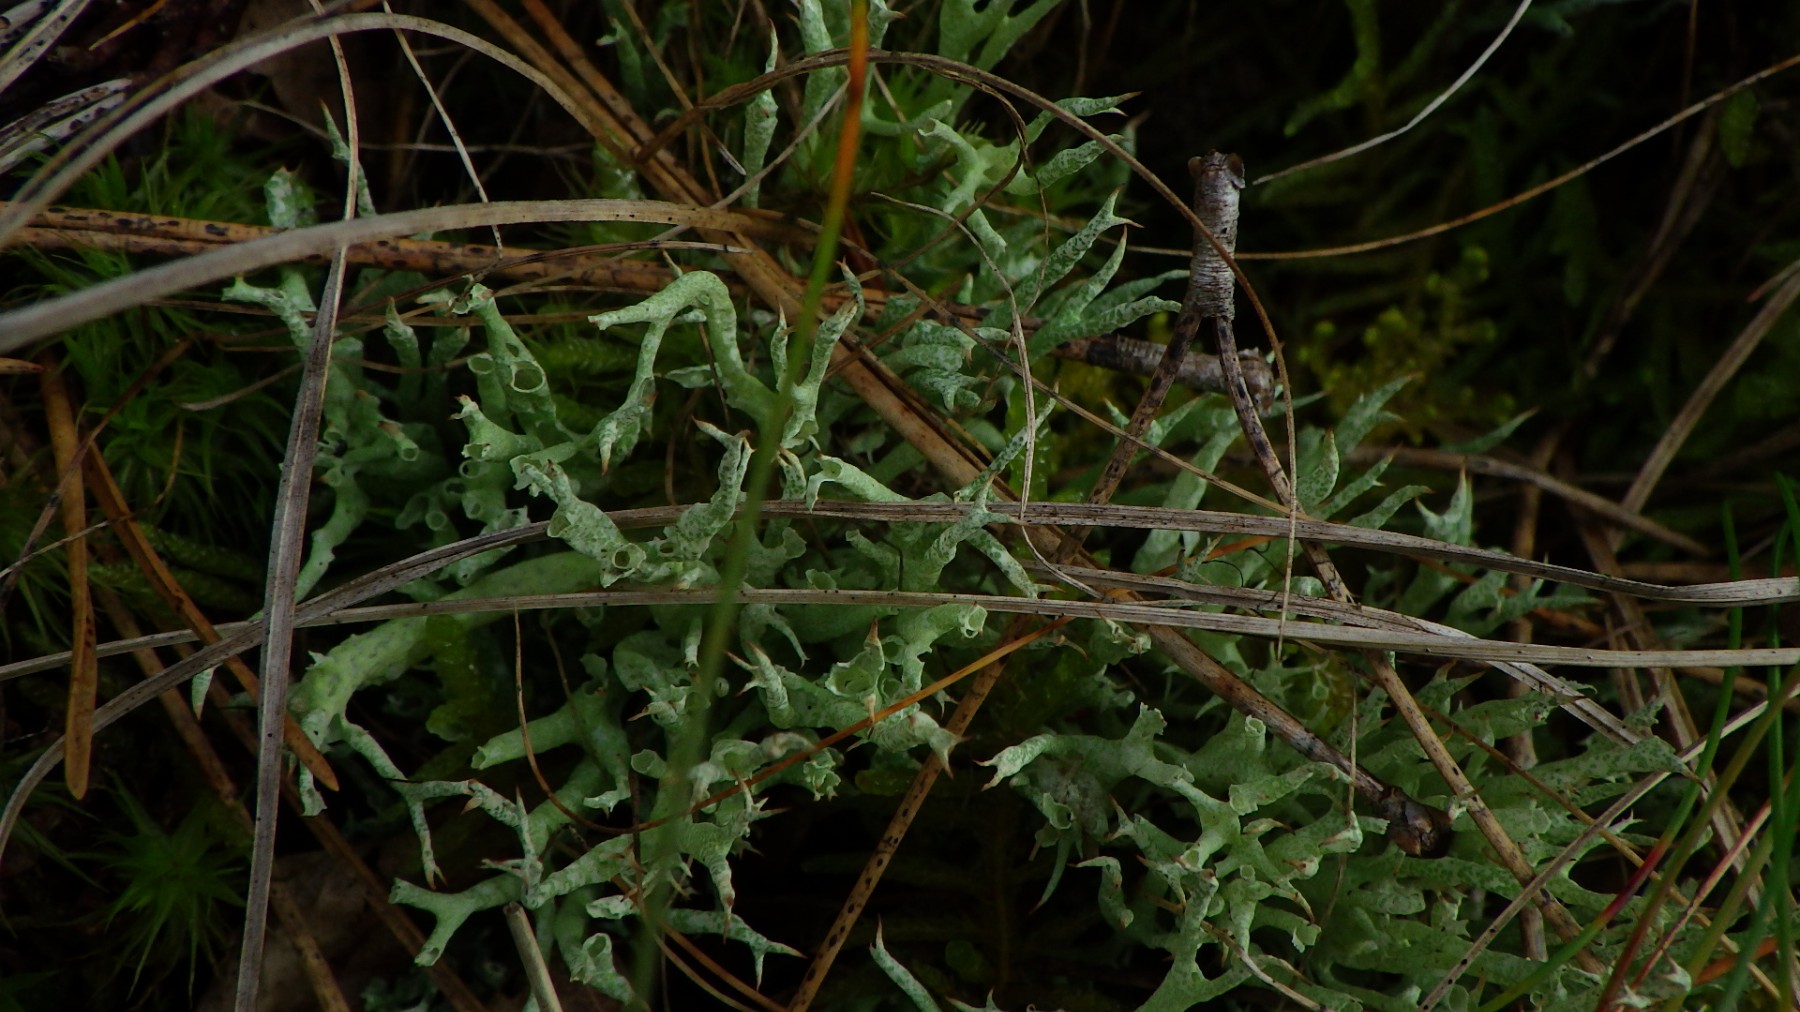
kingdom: Fungi
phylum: Ascomycota
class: Lecanoromycetes
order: Lecanorales
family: Cladoniaceae
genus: Cladonia
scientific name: Cladonia uncialis
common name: pigget bægerlav
